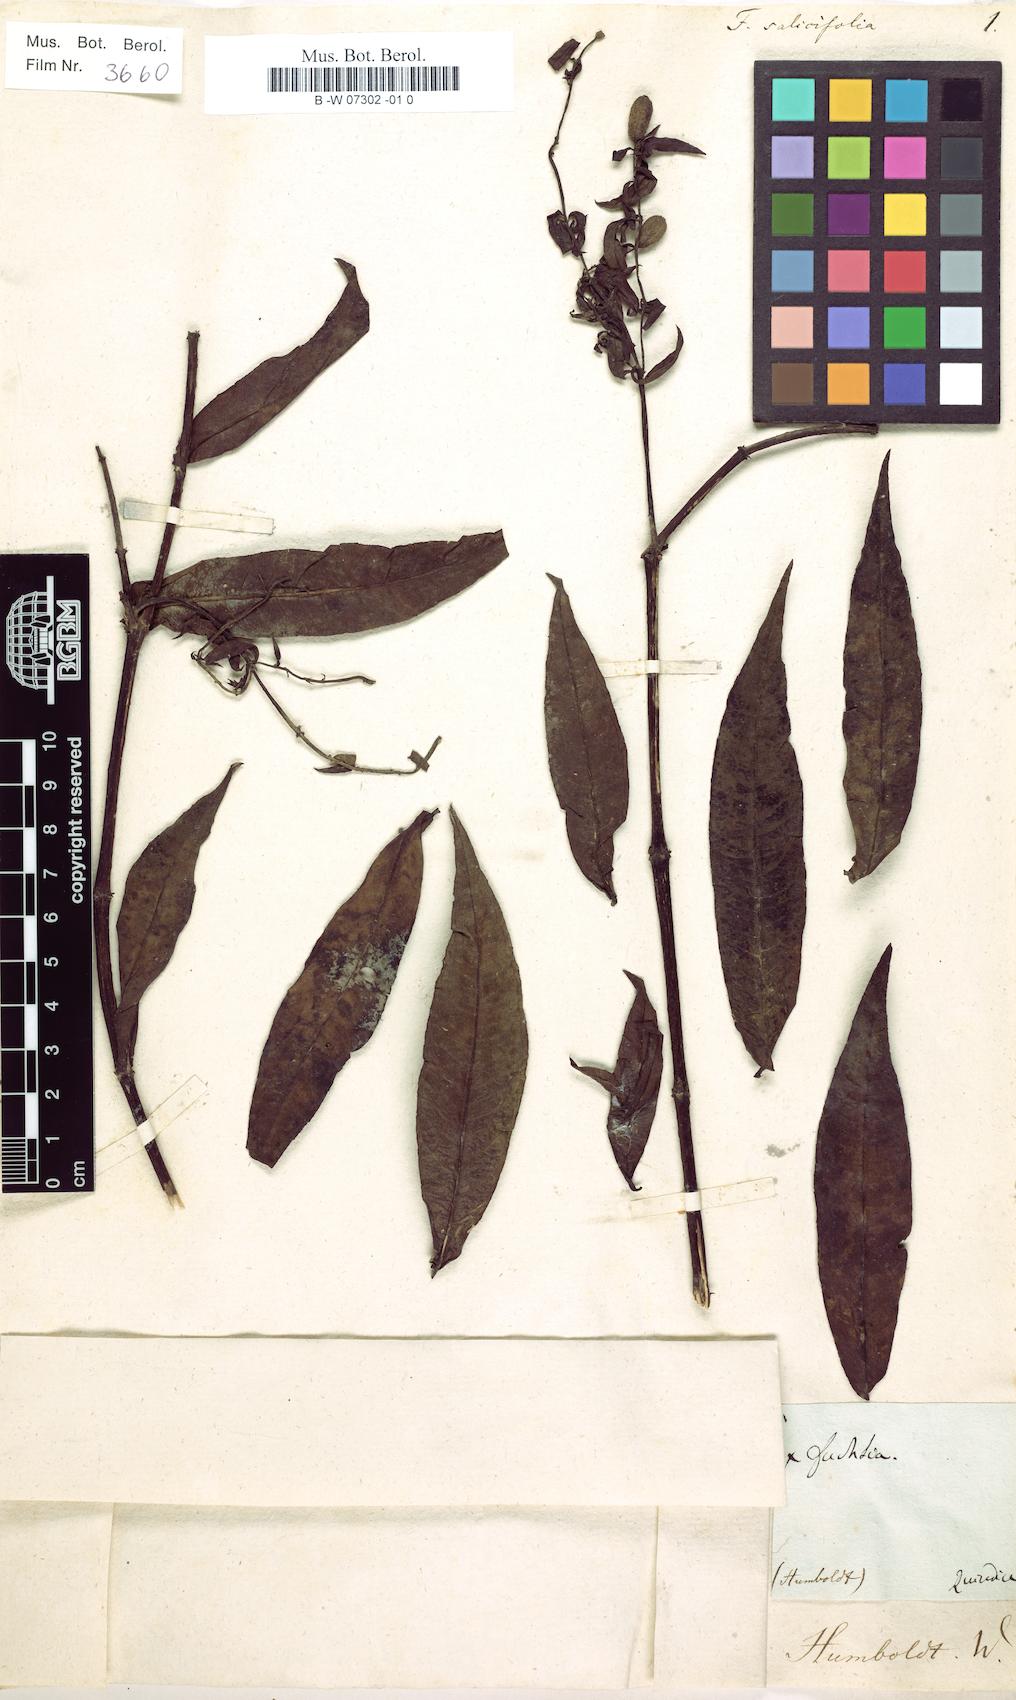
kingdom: Plantae
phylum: Tracheophyta
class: Magnoliopsida
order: Myrtales
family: Onagraceae
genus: Fuchsia
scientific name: Fuchsia salicifolia
